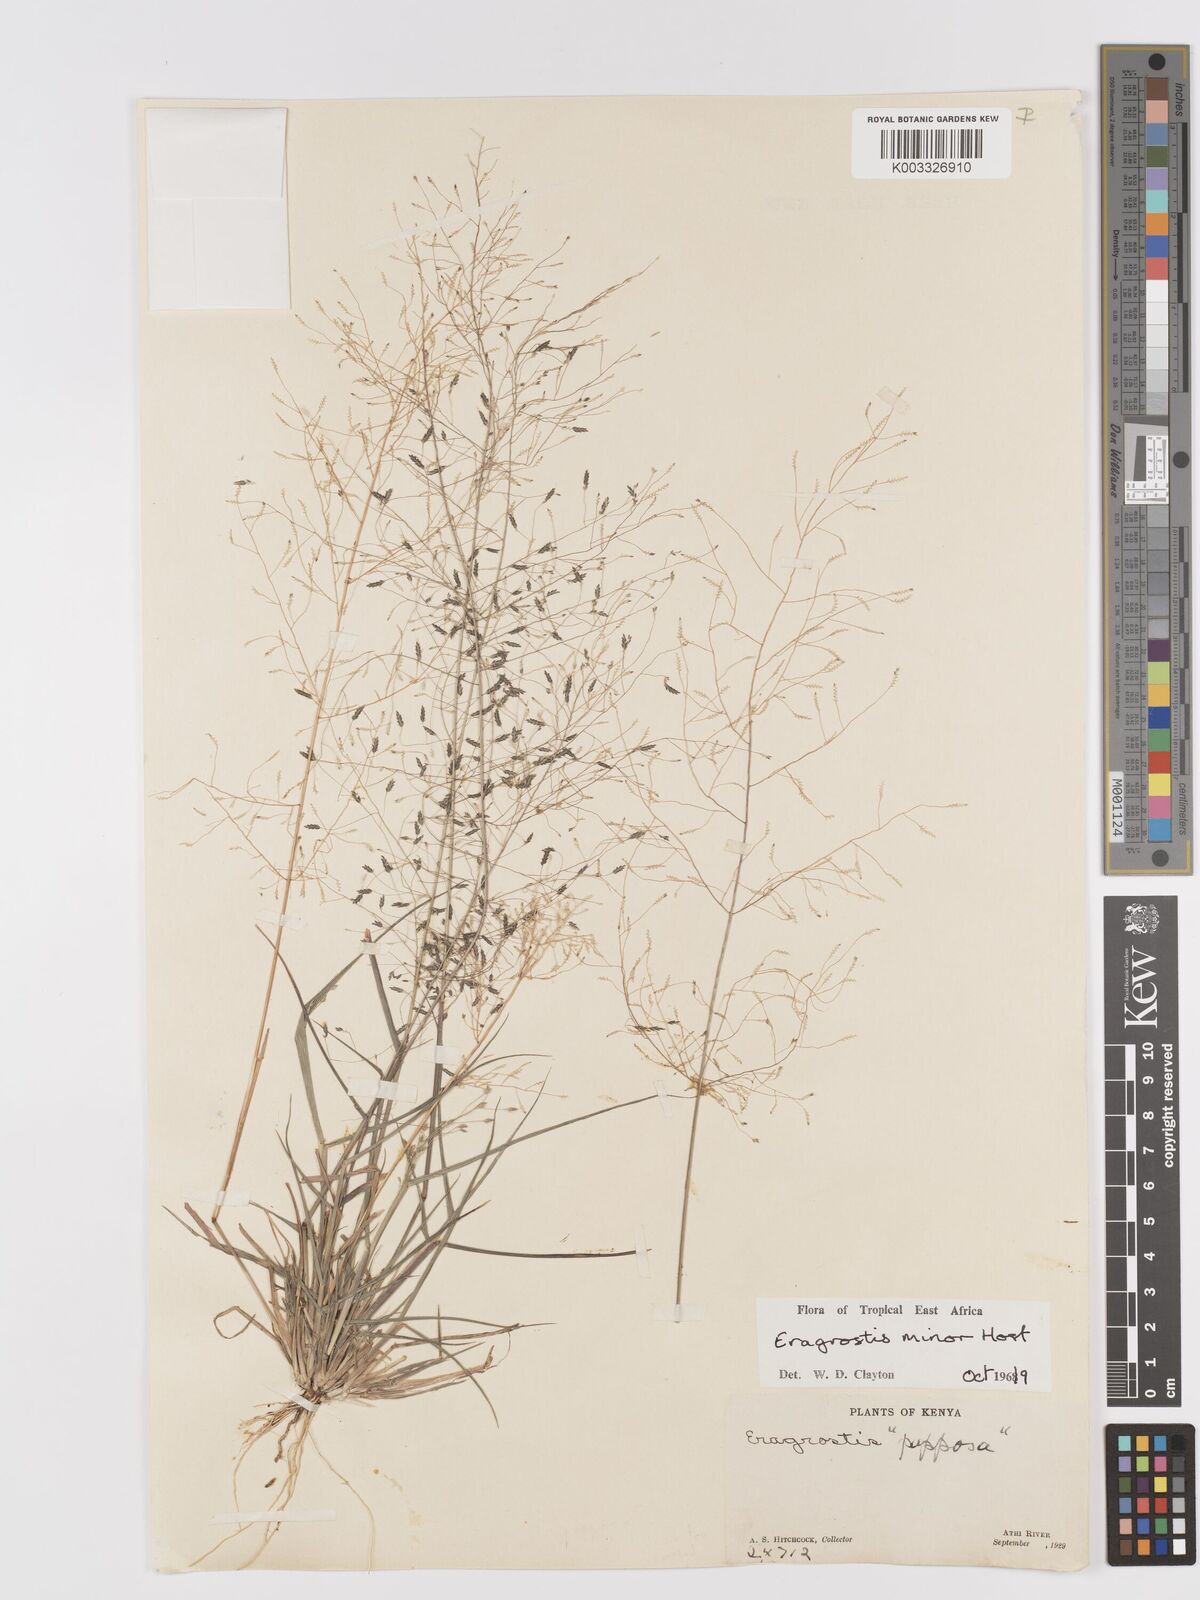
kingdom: Plantae
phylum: Tracheophyta
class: Liliopsida
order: Poales
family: Poaceae
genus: Eragrostis
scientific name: Eragrostis minor
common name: Small love-grass
